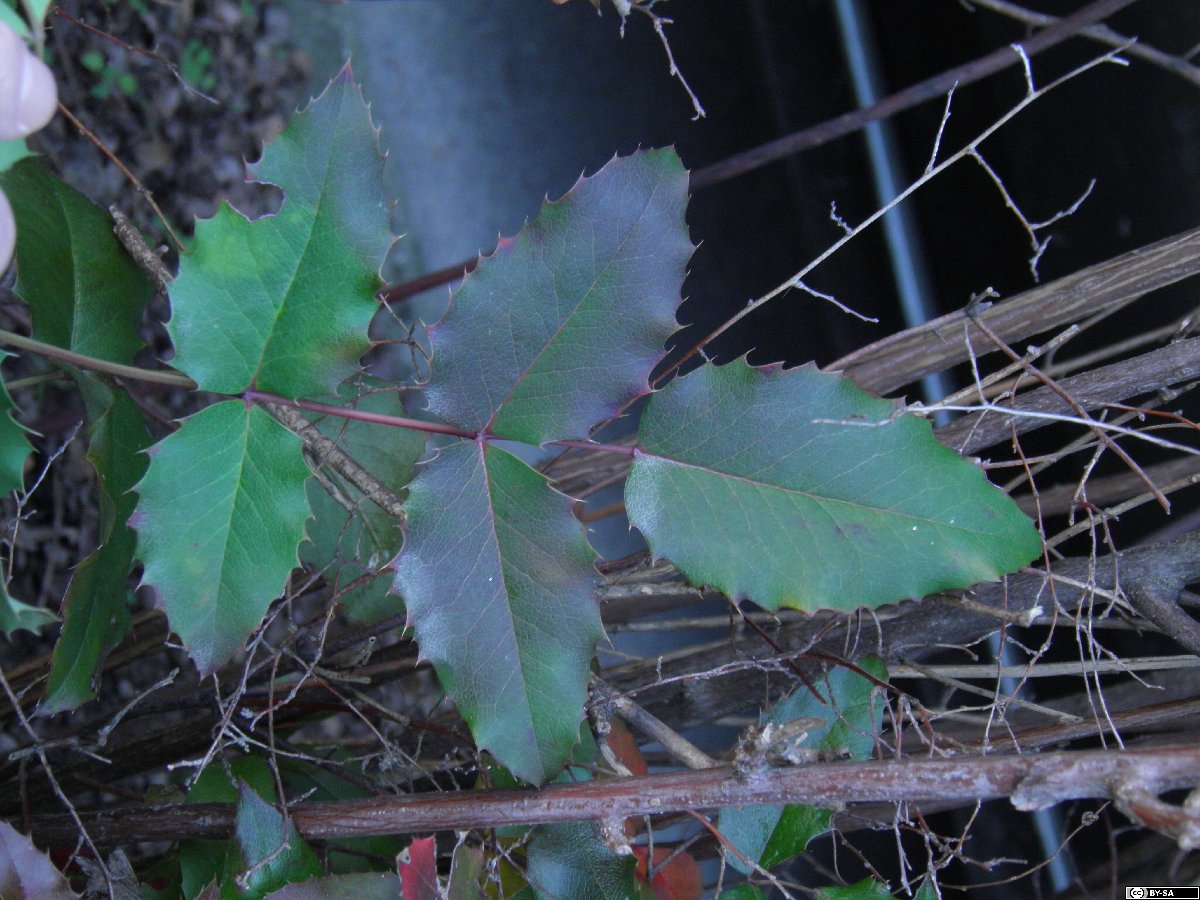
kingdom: Plantae
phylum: Tracheophyta
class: Magnoliopsida
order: Ranunculales
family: Berberidaceae
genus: Mahonia
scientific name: Mahonia decumbens
